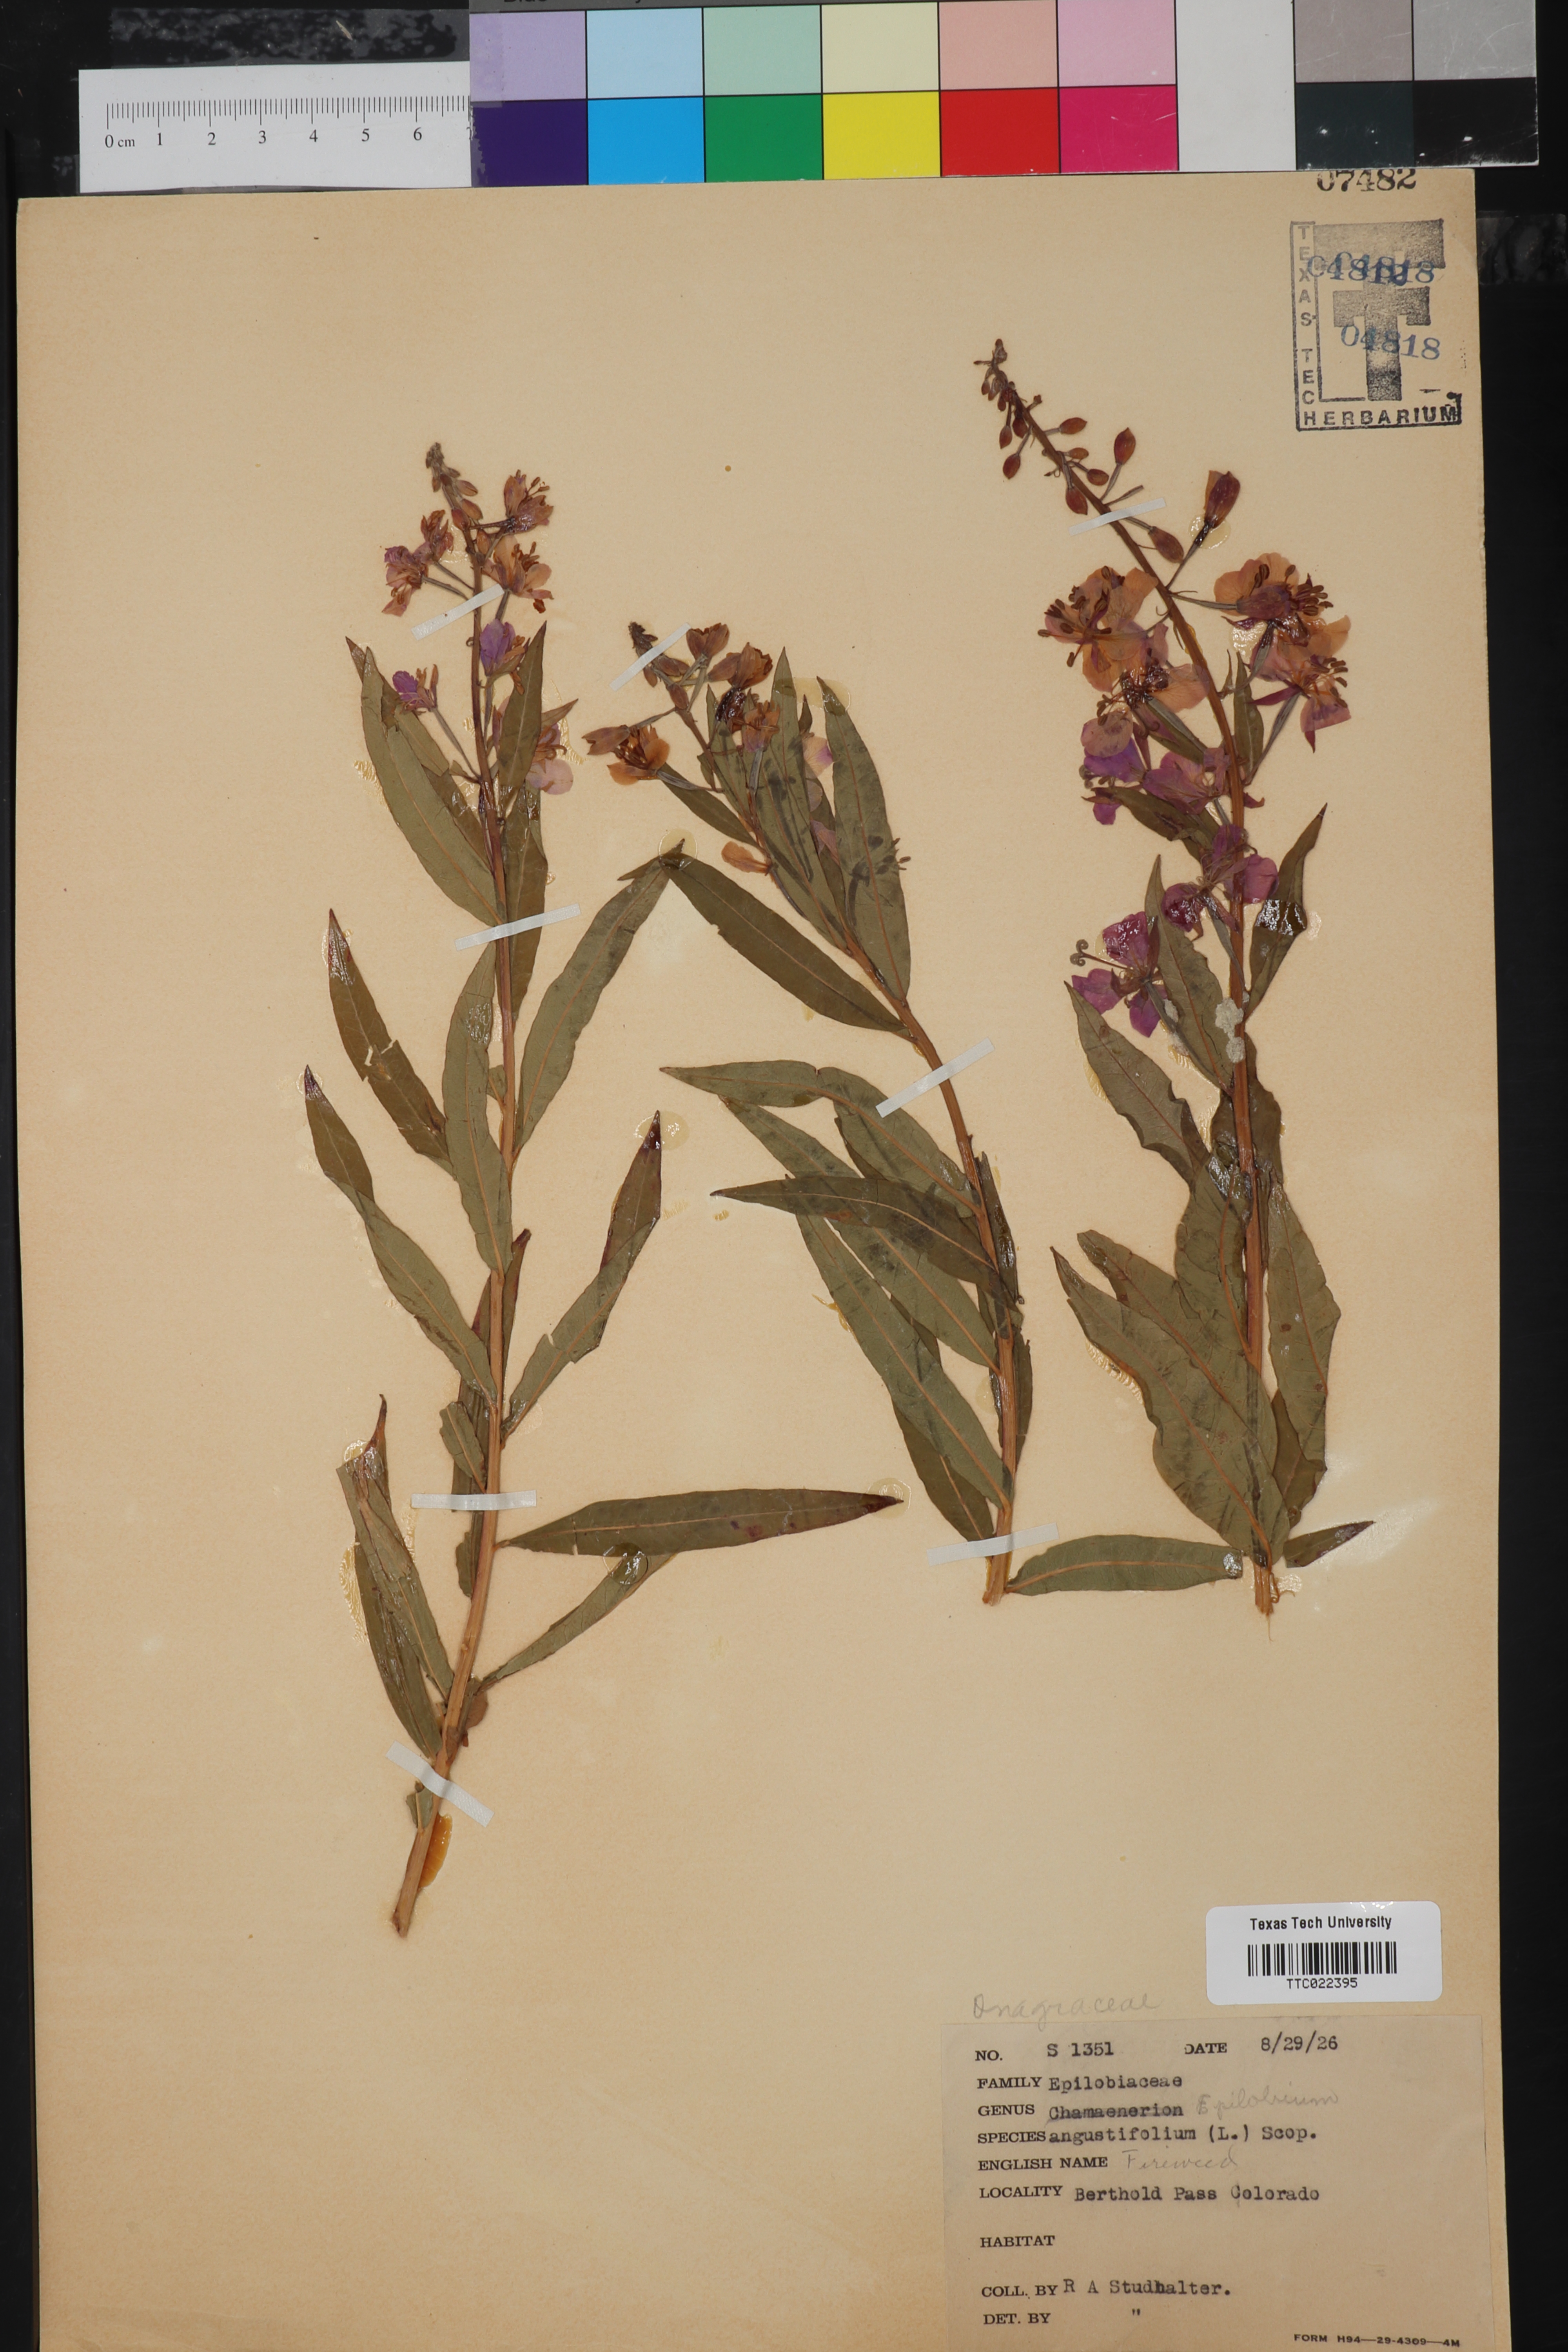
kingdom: Plantae
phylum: Tracheophyta
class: Magnoliopsida
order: Myrtales
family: Onagraceae
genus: Chamaenerion
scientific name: Chamaenerion angustifolium
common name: Fireweed
